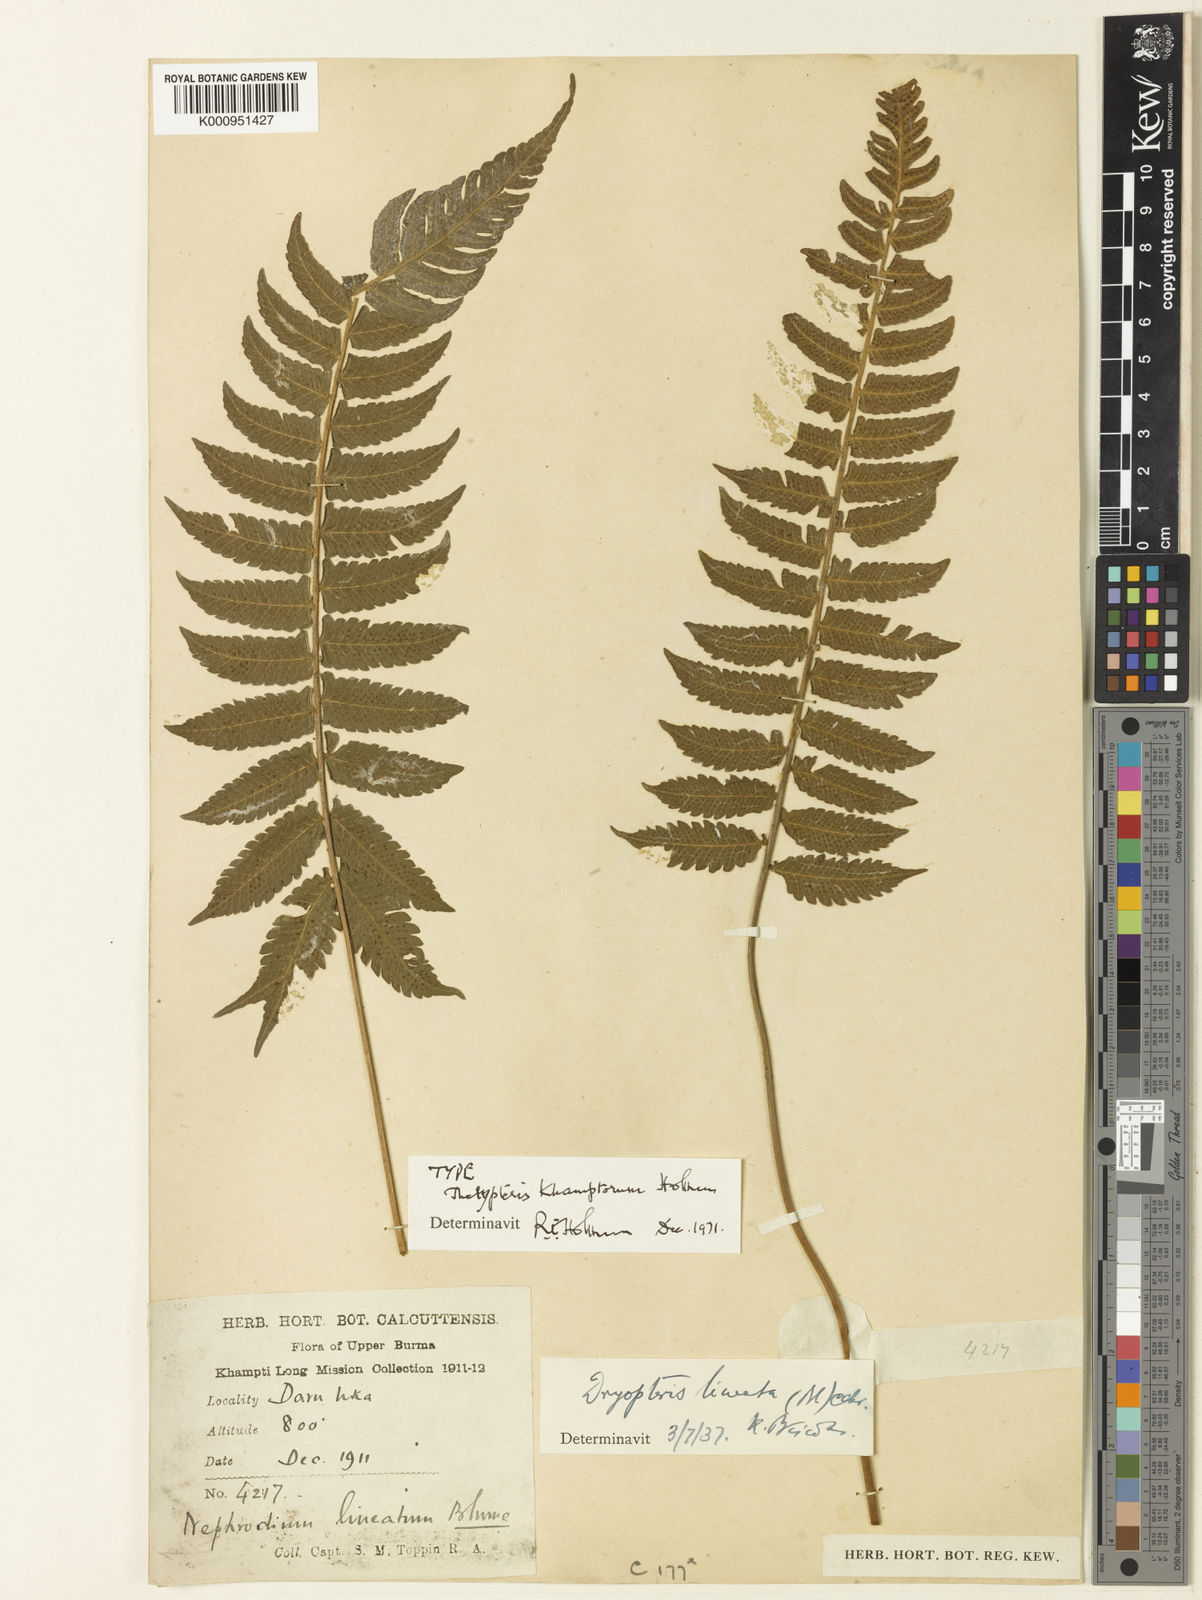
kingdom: Plantae
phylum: Tracheophyta
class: Polypodiopsida
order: Polypodiales
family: Thelypteridaceae
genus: Trigonospora
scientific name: Trigonospora khamptorum
